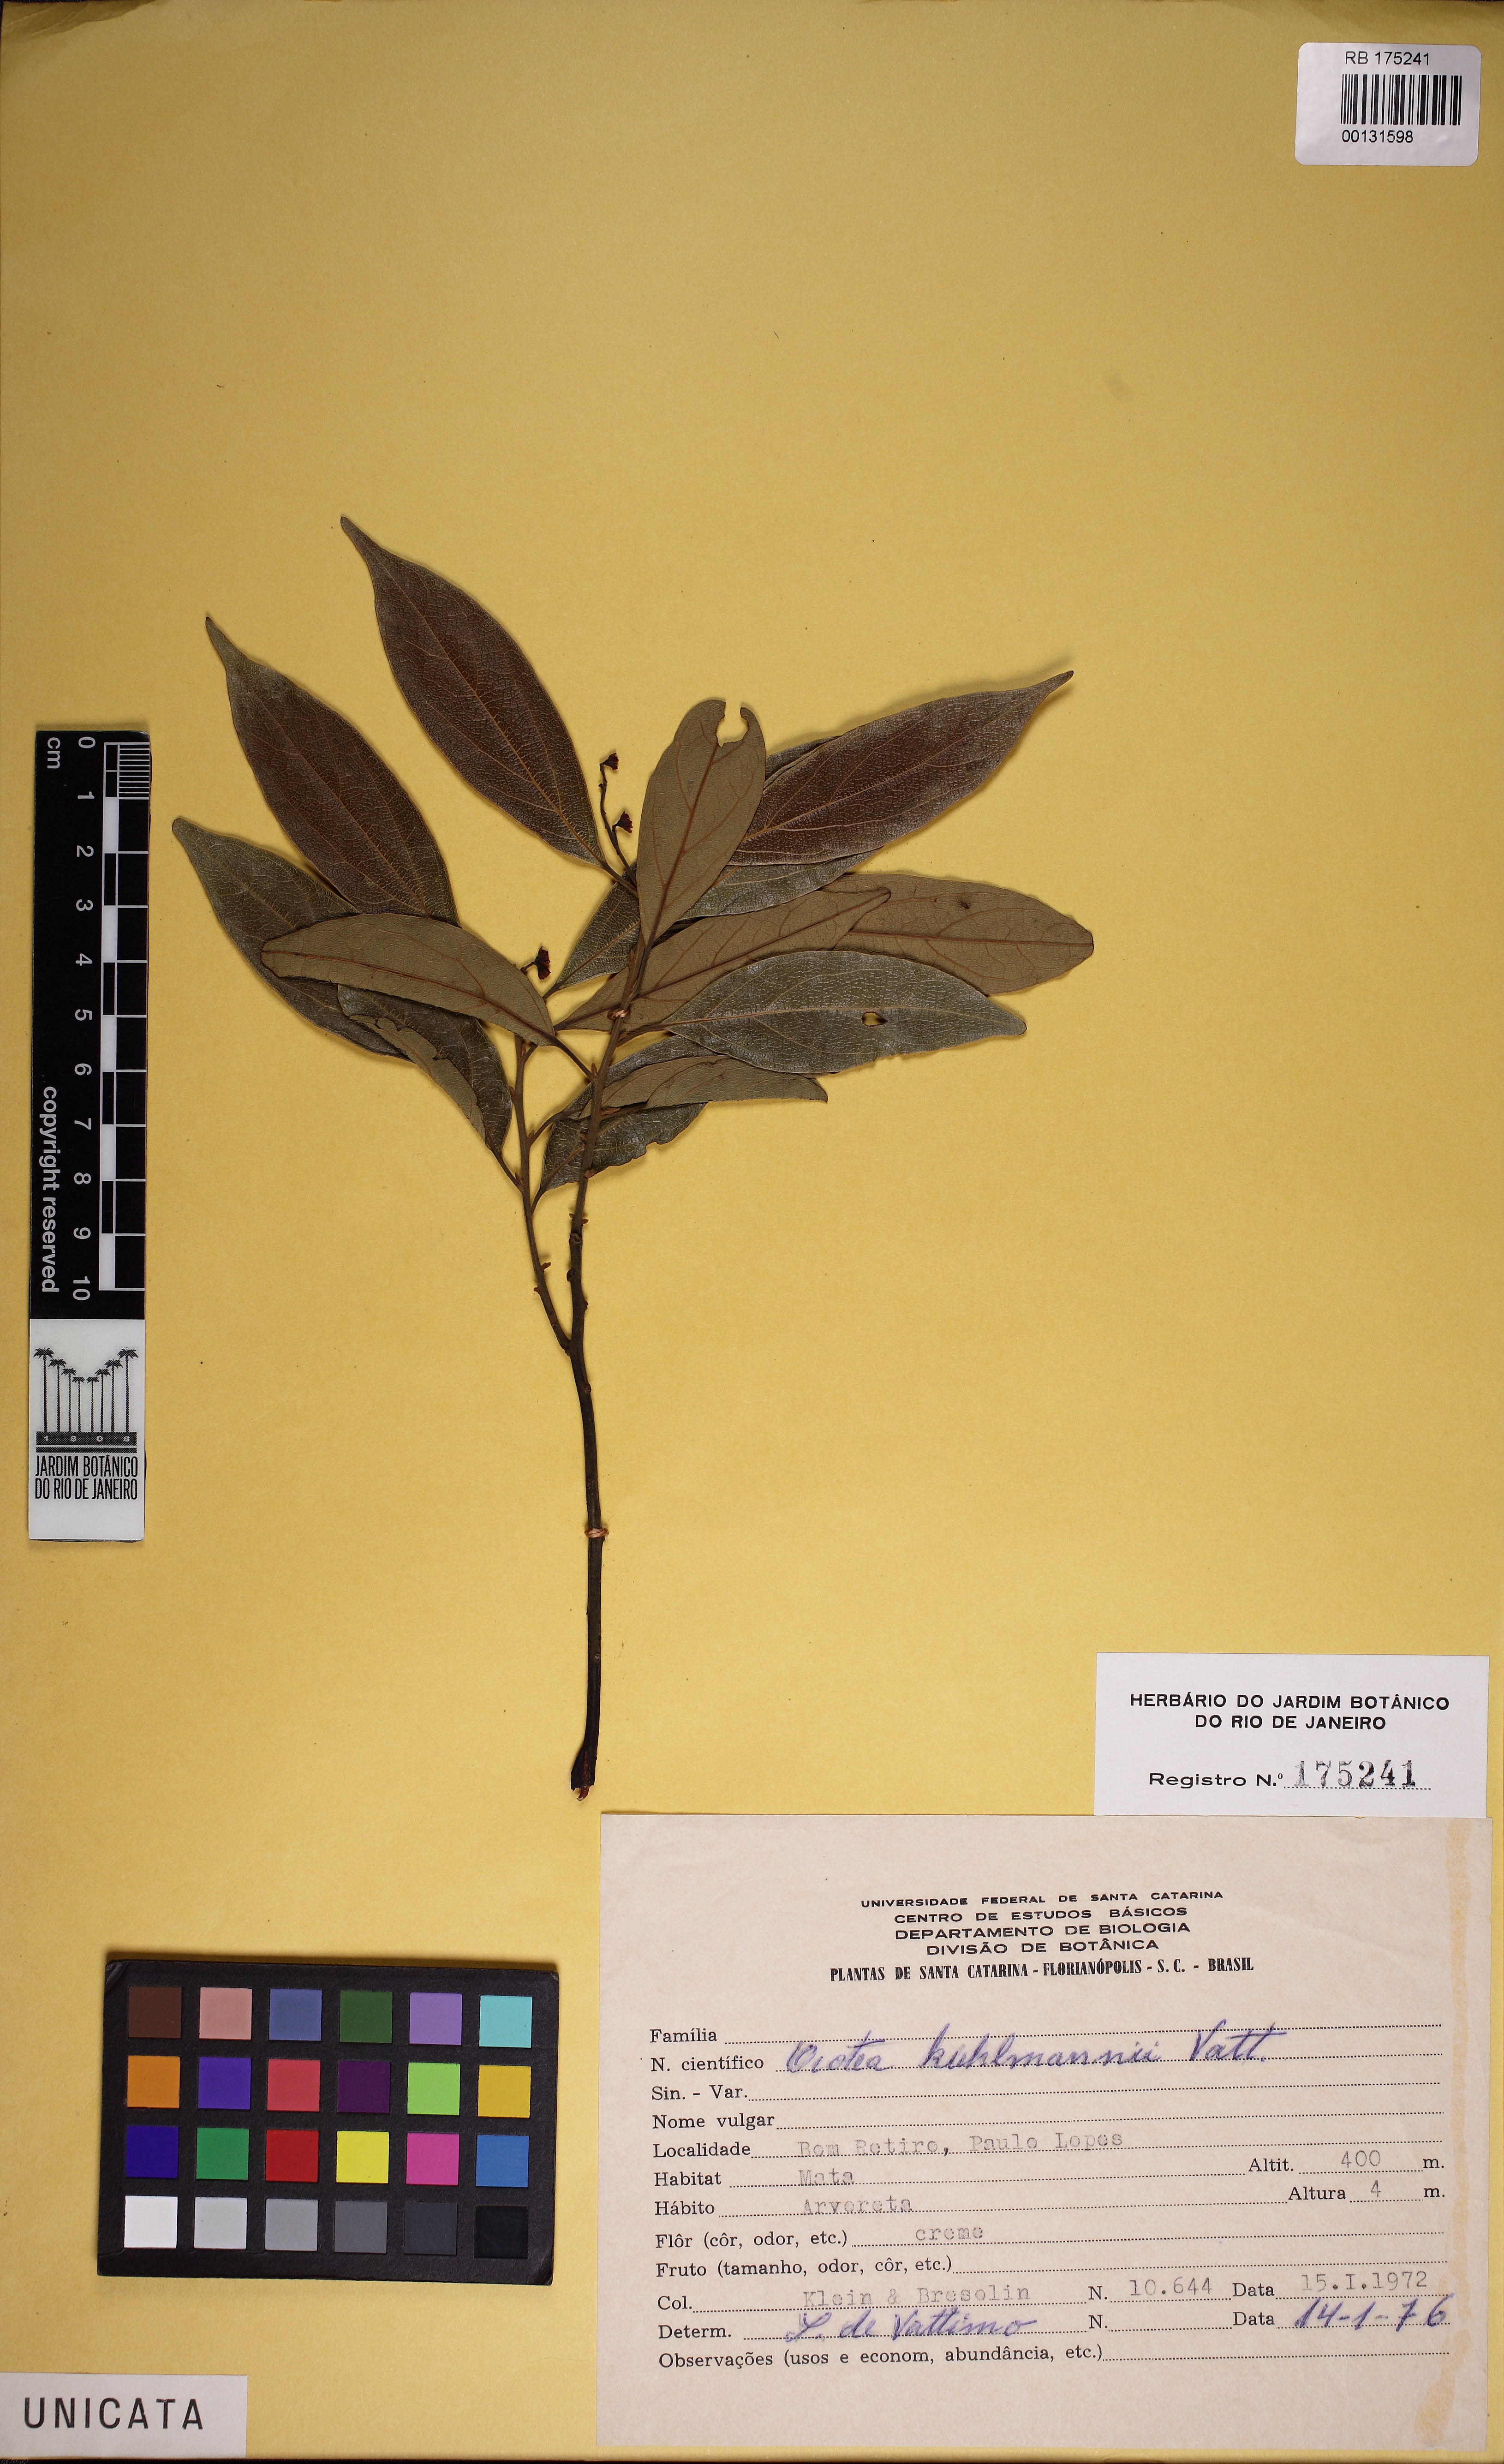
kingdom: Plantae
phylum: Tracheophyta
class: Magnoliopsida
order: Laurales
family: Lauraceae
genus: Ocotea
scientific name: Ocotea urbaniana
